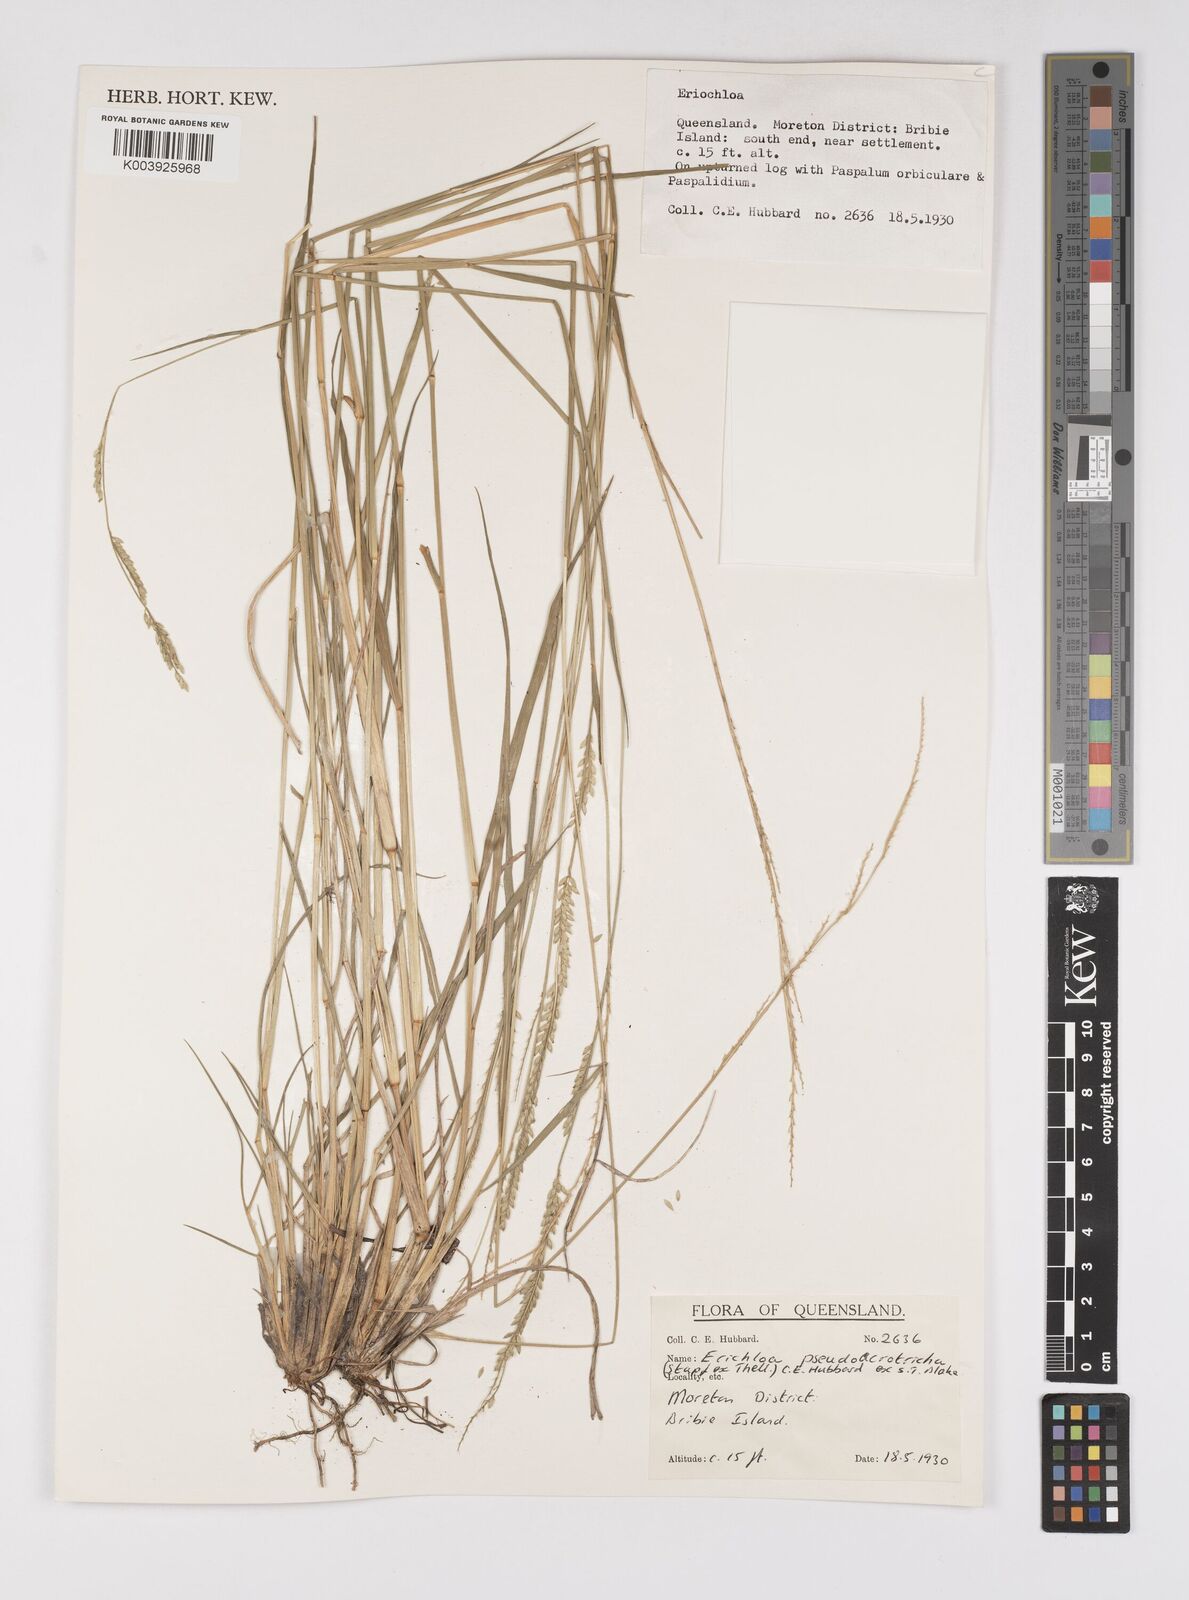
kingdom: Plantae
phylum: Tracheophyta
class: Liliopsida
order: Poales
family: Poaceae
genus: Eriochloa
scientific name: Eriochloa pseudoacrotricha
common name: Perennial cup-grass
